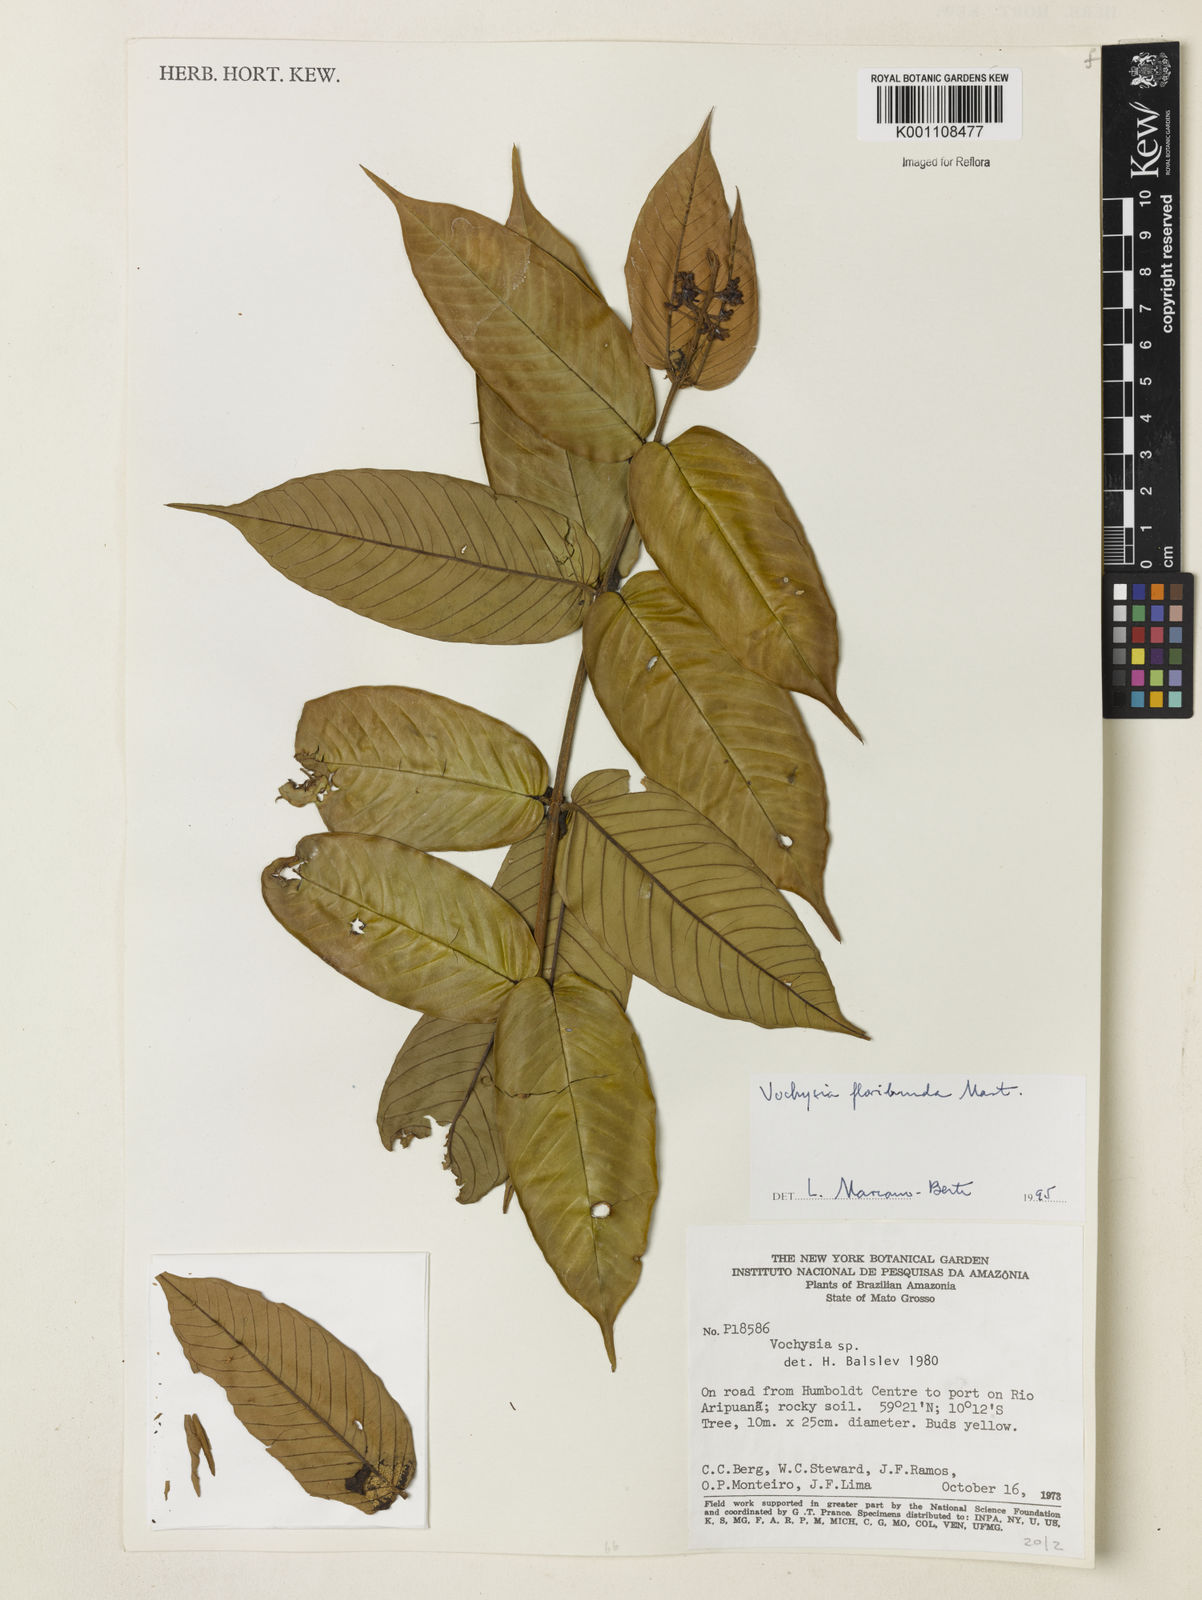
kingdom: Plantae
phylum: Tracheophyta
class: Magnoliopsida
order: Myrtales
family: Vochysiaceae
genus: Vochysia
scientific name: Vochysia floribunda
